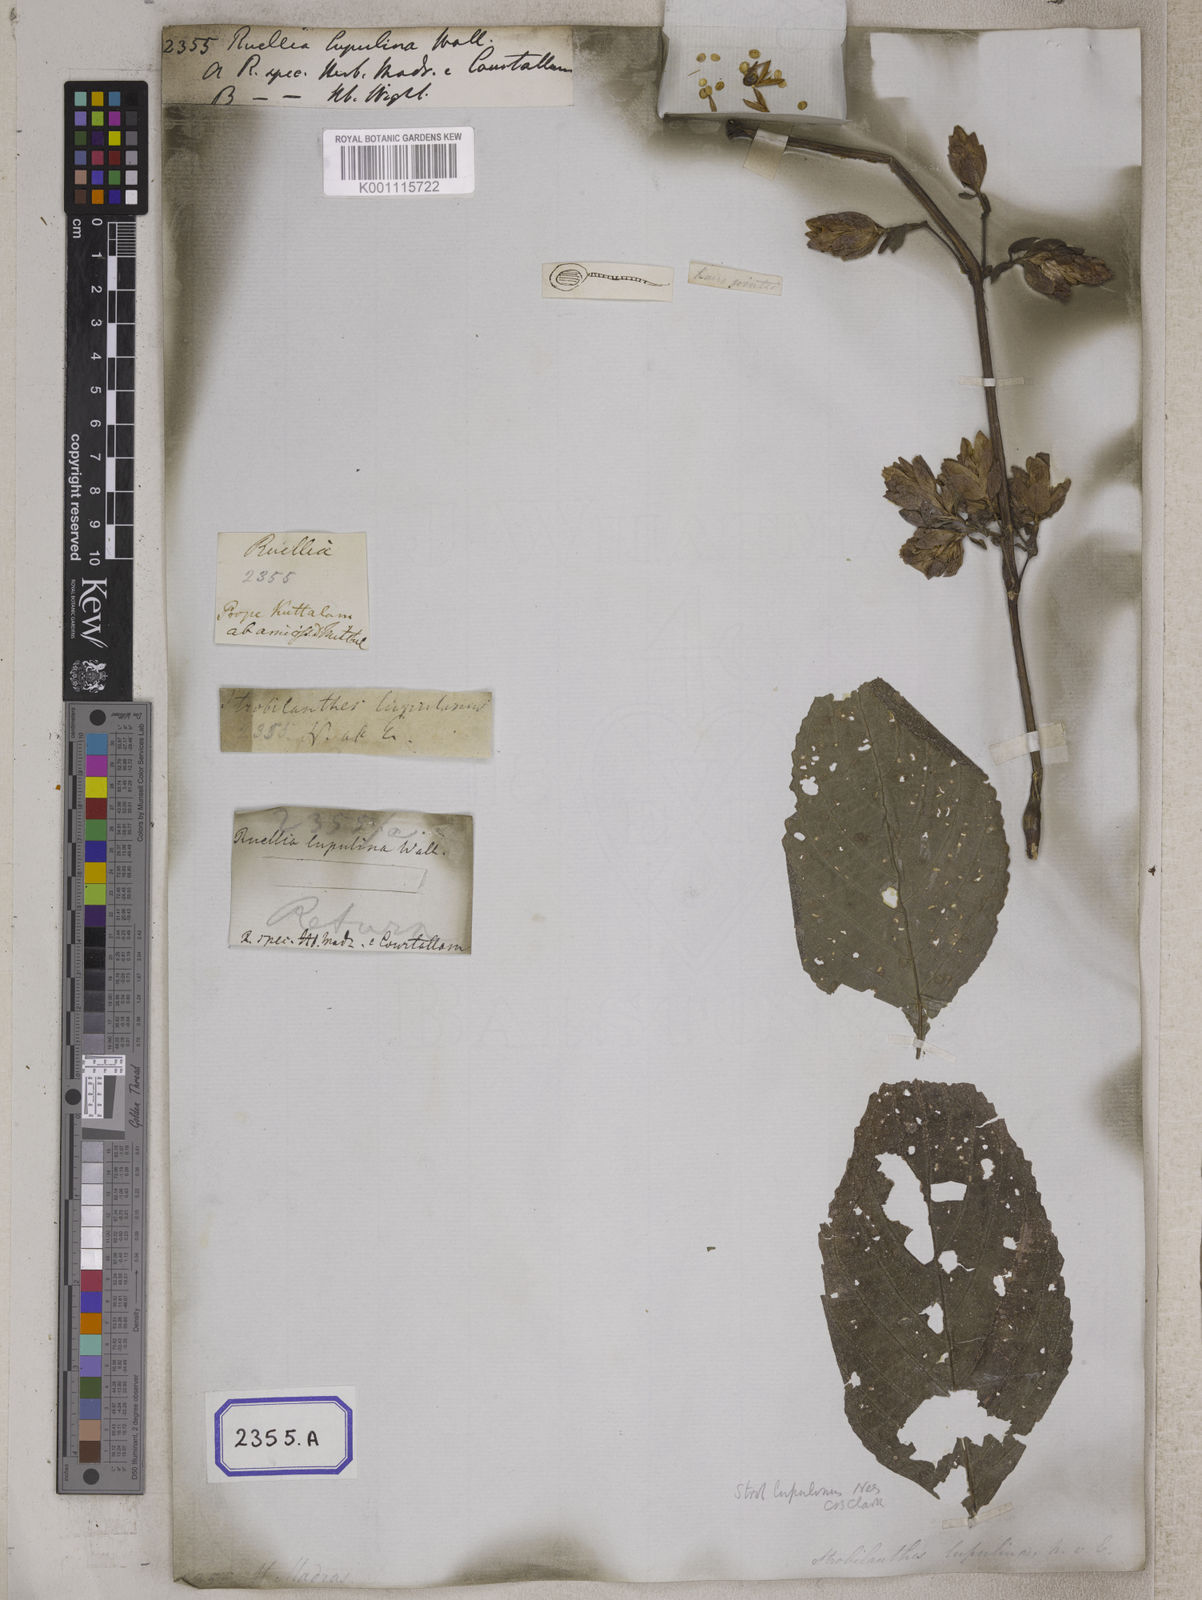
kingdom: Plantae
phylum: Tracheophyta
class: Magnoliopsida
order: Lamiales
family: Acanthaceae
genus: Strobilanthes
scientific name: Strobilanthes lupulina
